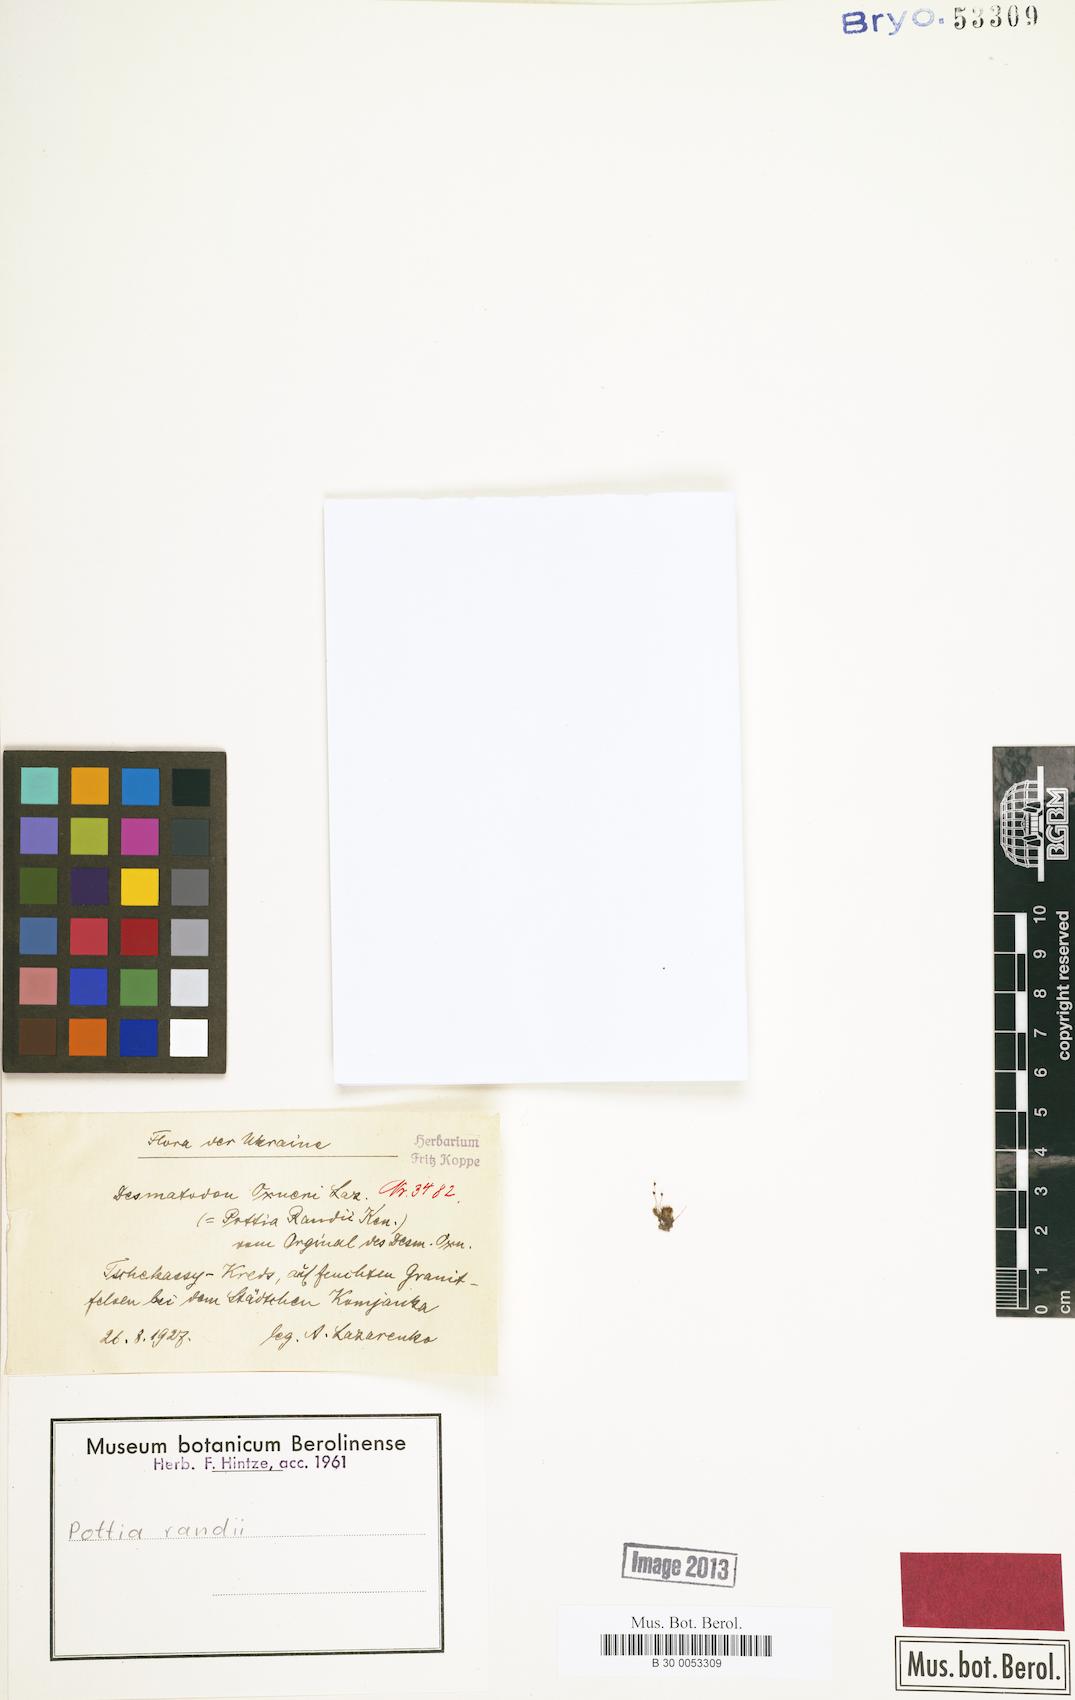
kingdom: Plantae
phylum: Bryophyta
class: Bryopsida
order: Pottiales
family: Pottiaceae
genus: Tortula
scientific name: Tortula cernua
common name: Flamingo moss
